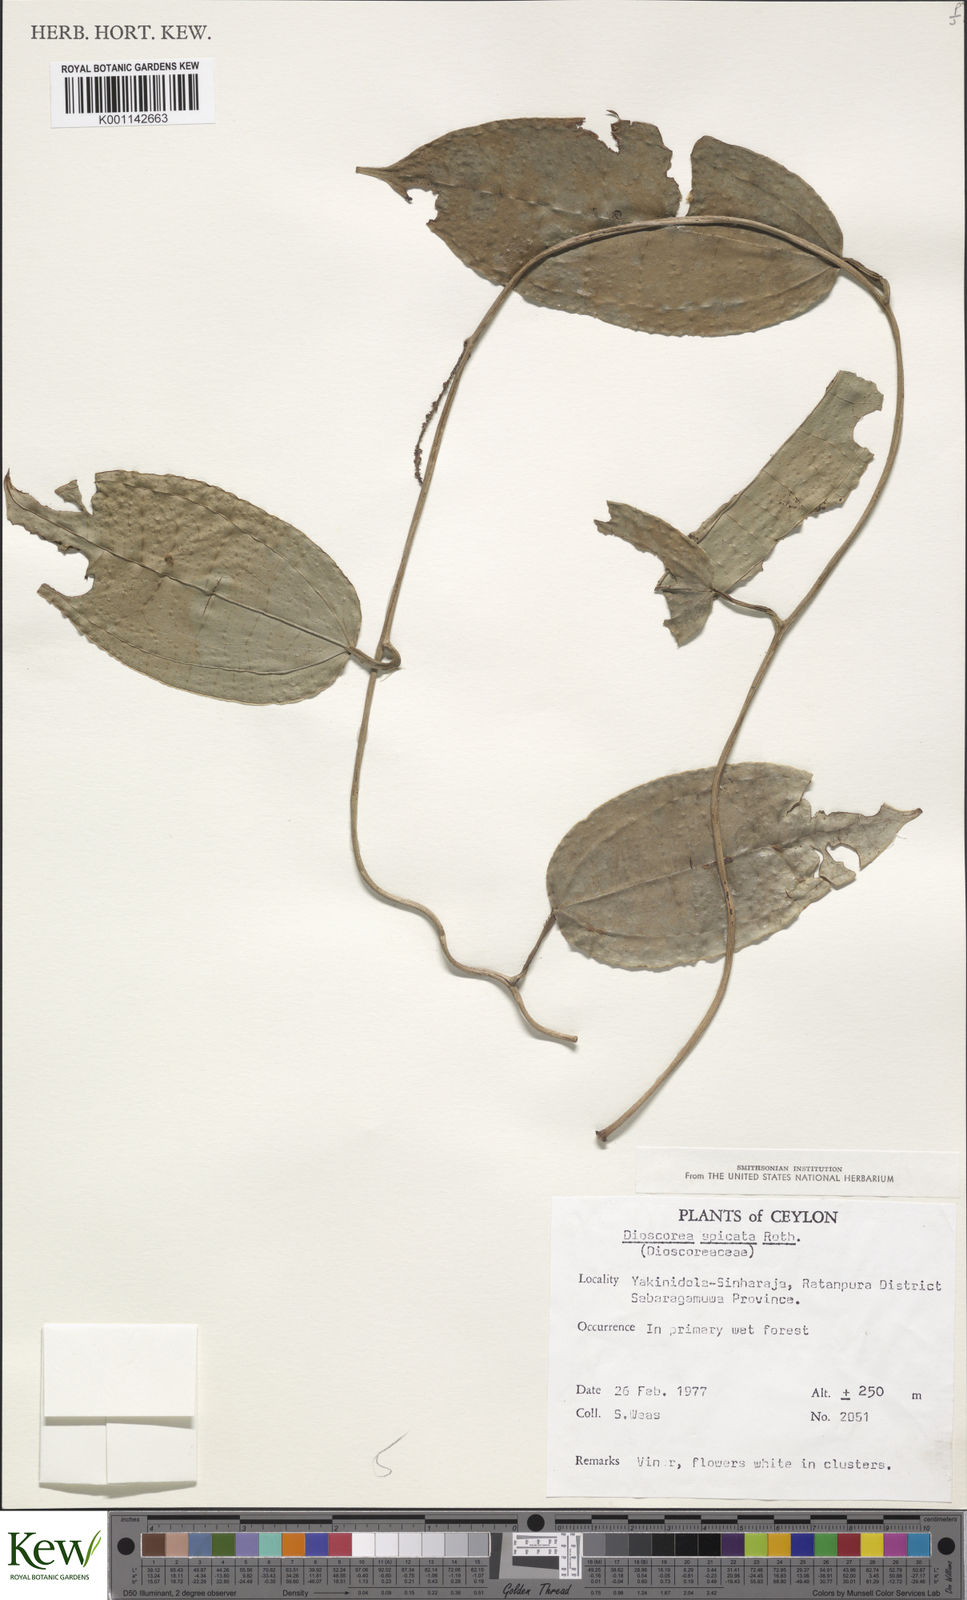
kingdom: Plantae
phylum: Tracheophyta
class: Liliopsida
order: Dioscoreales
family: Dioscoreaceae
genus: Dioscorea
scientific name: Dioscorea spicata
